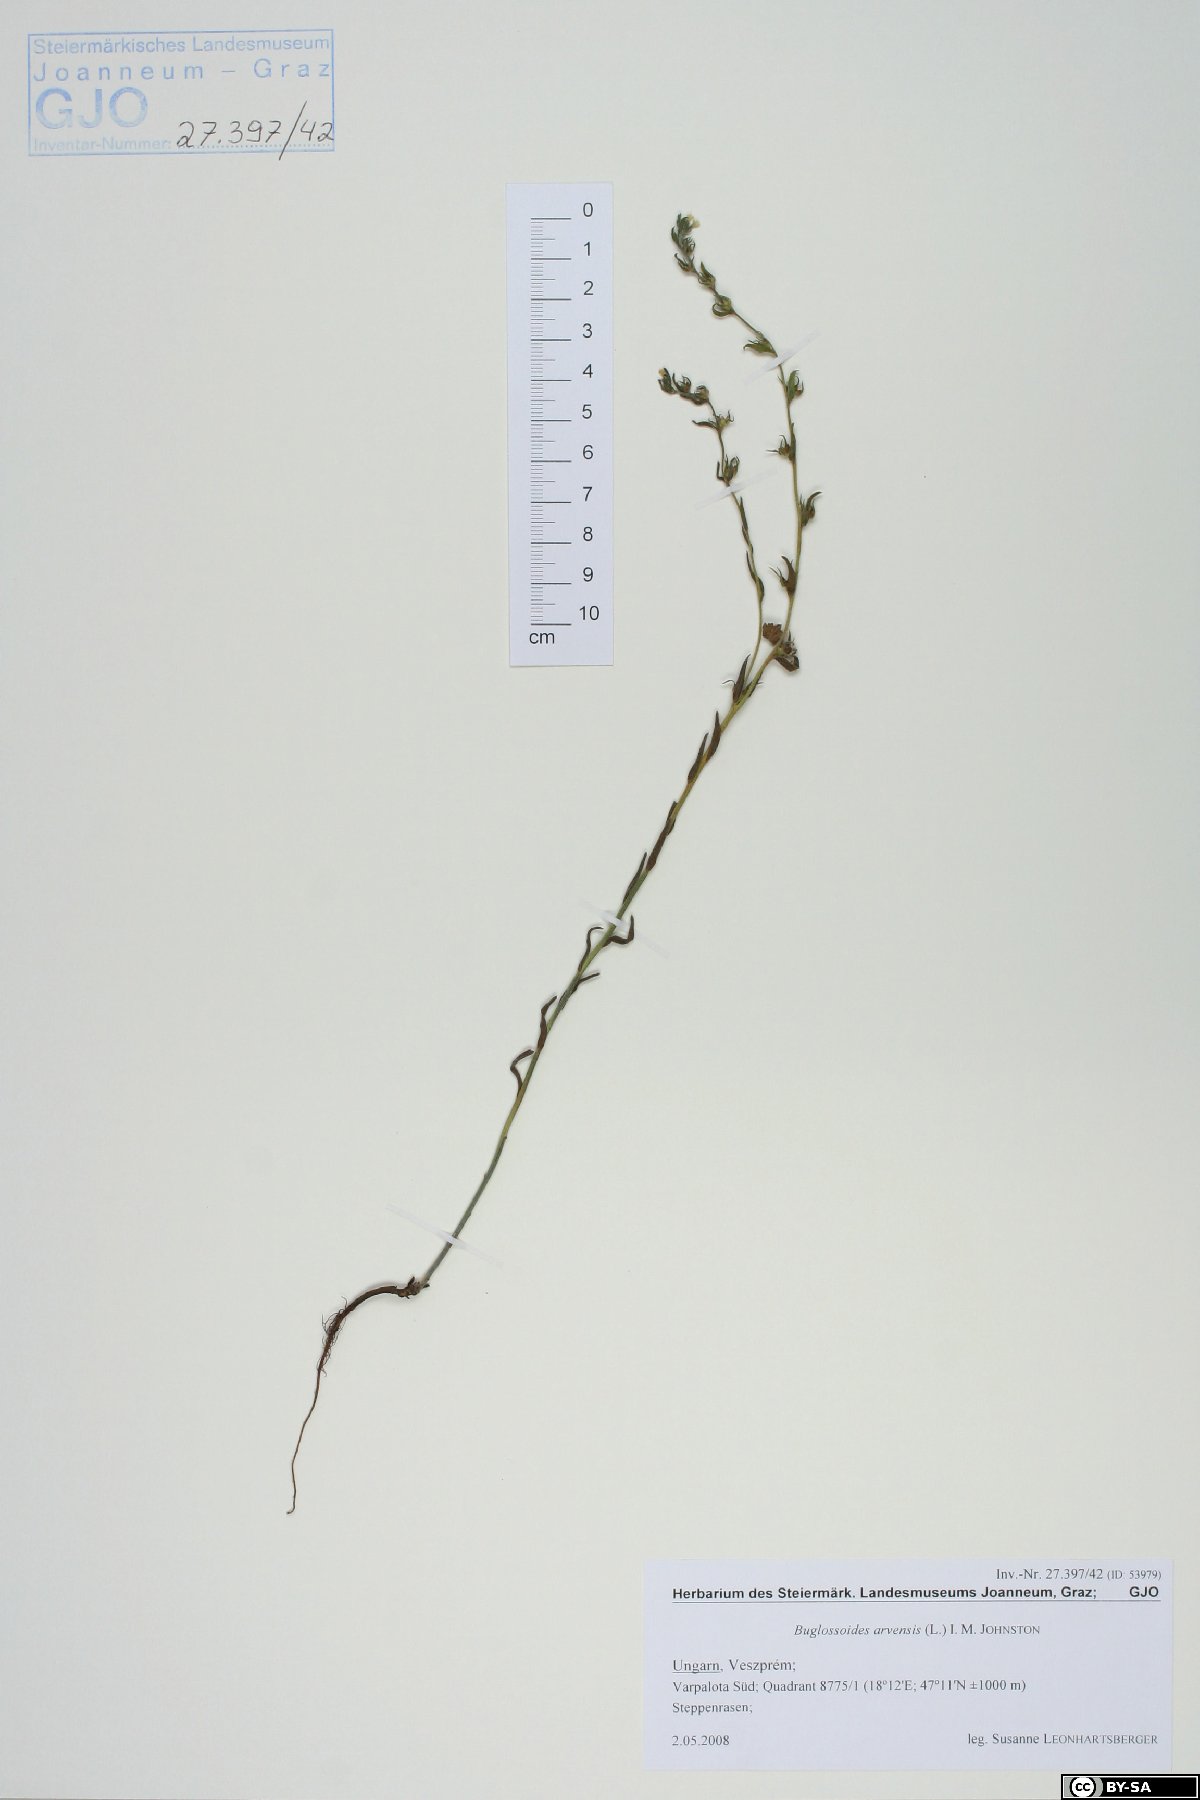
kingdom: Plantae
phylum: Tracheophyta
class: Magnoliopsida
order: Boraginales
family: Boraginaceae
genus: Buglossoides
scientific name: Buglossoides arvensis
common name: Corn gromwell
